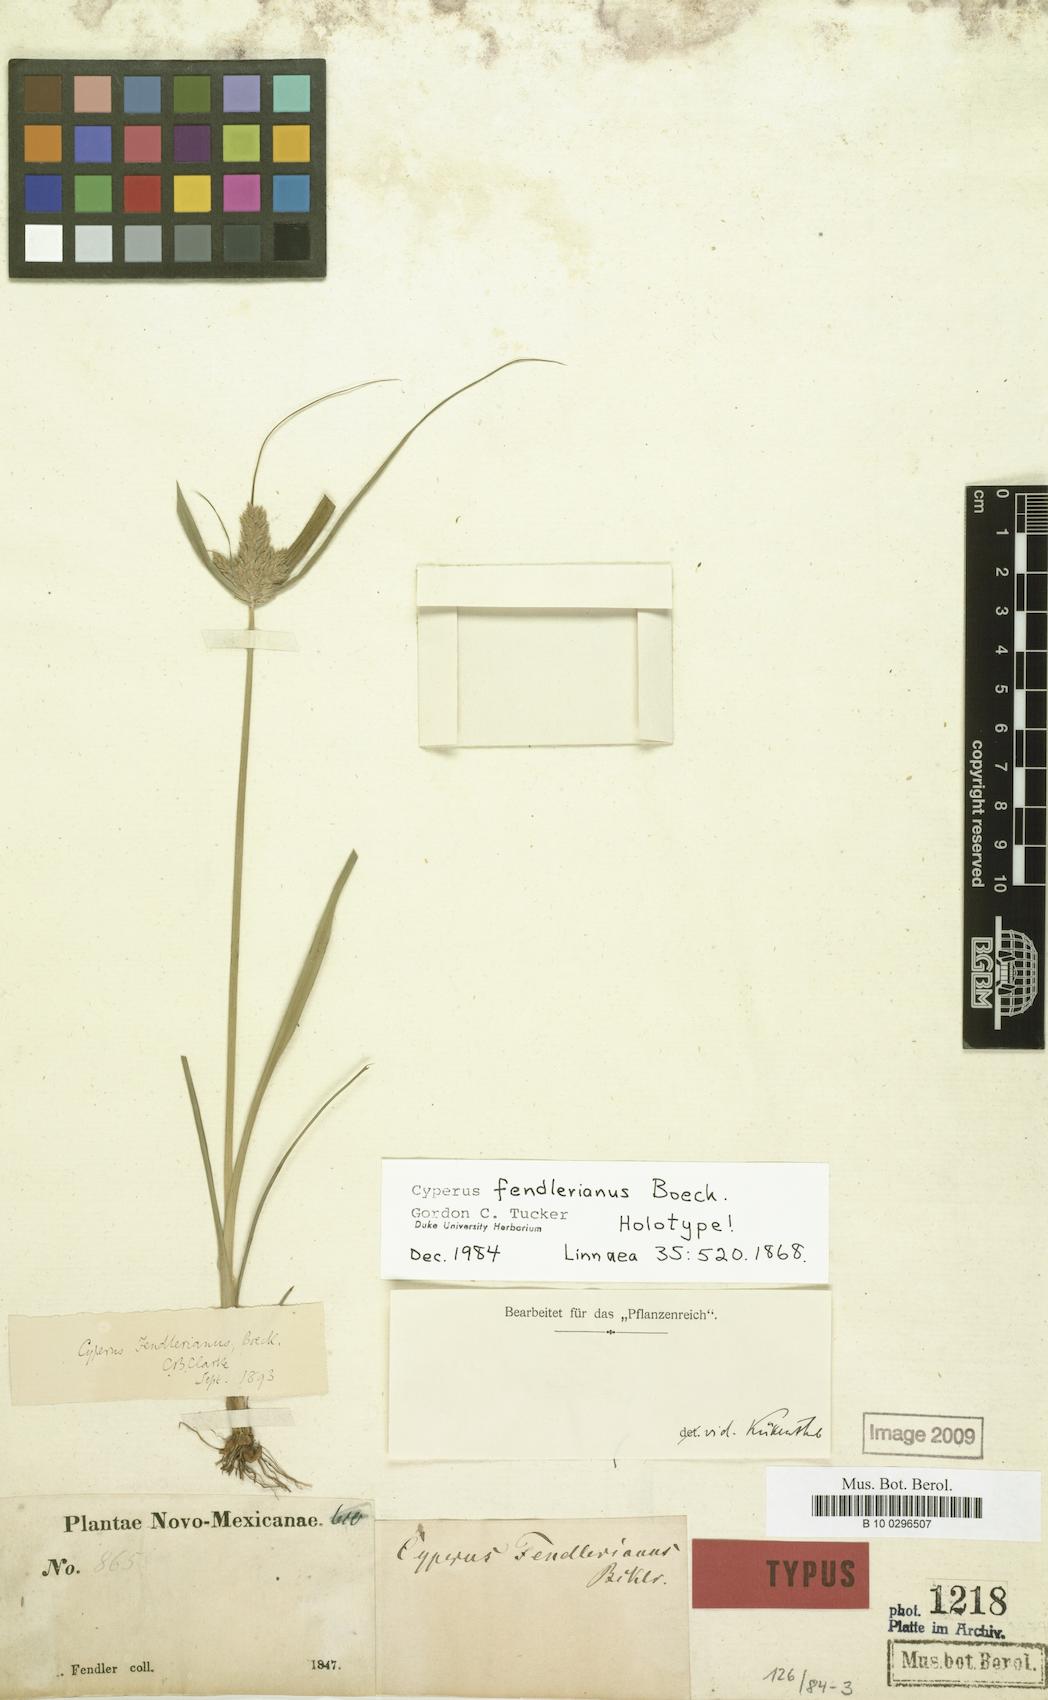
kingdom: Plantae
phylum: Tracheophyta
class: Liliopsida
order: Poales
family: Cyperaceae
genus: Cyperus
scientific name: Cyperus fendlerianus
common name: Fendler flat sedge
